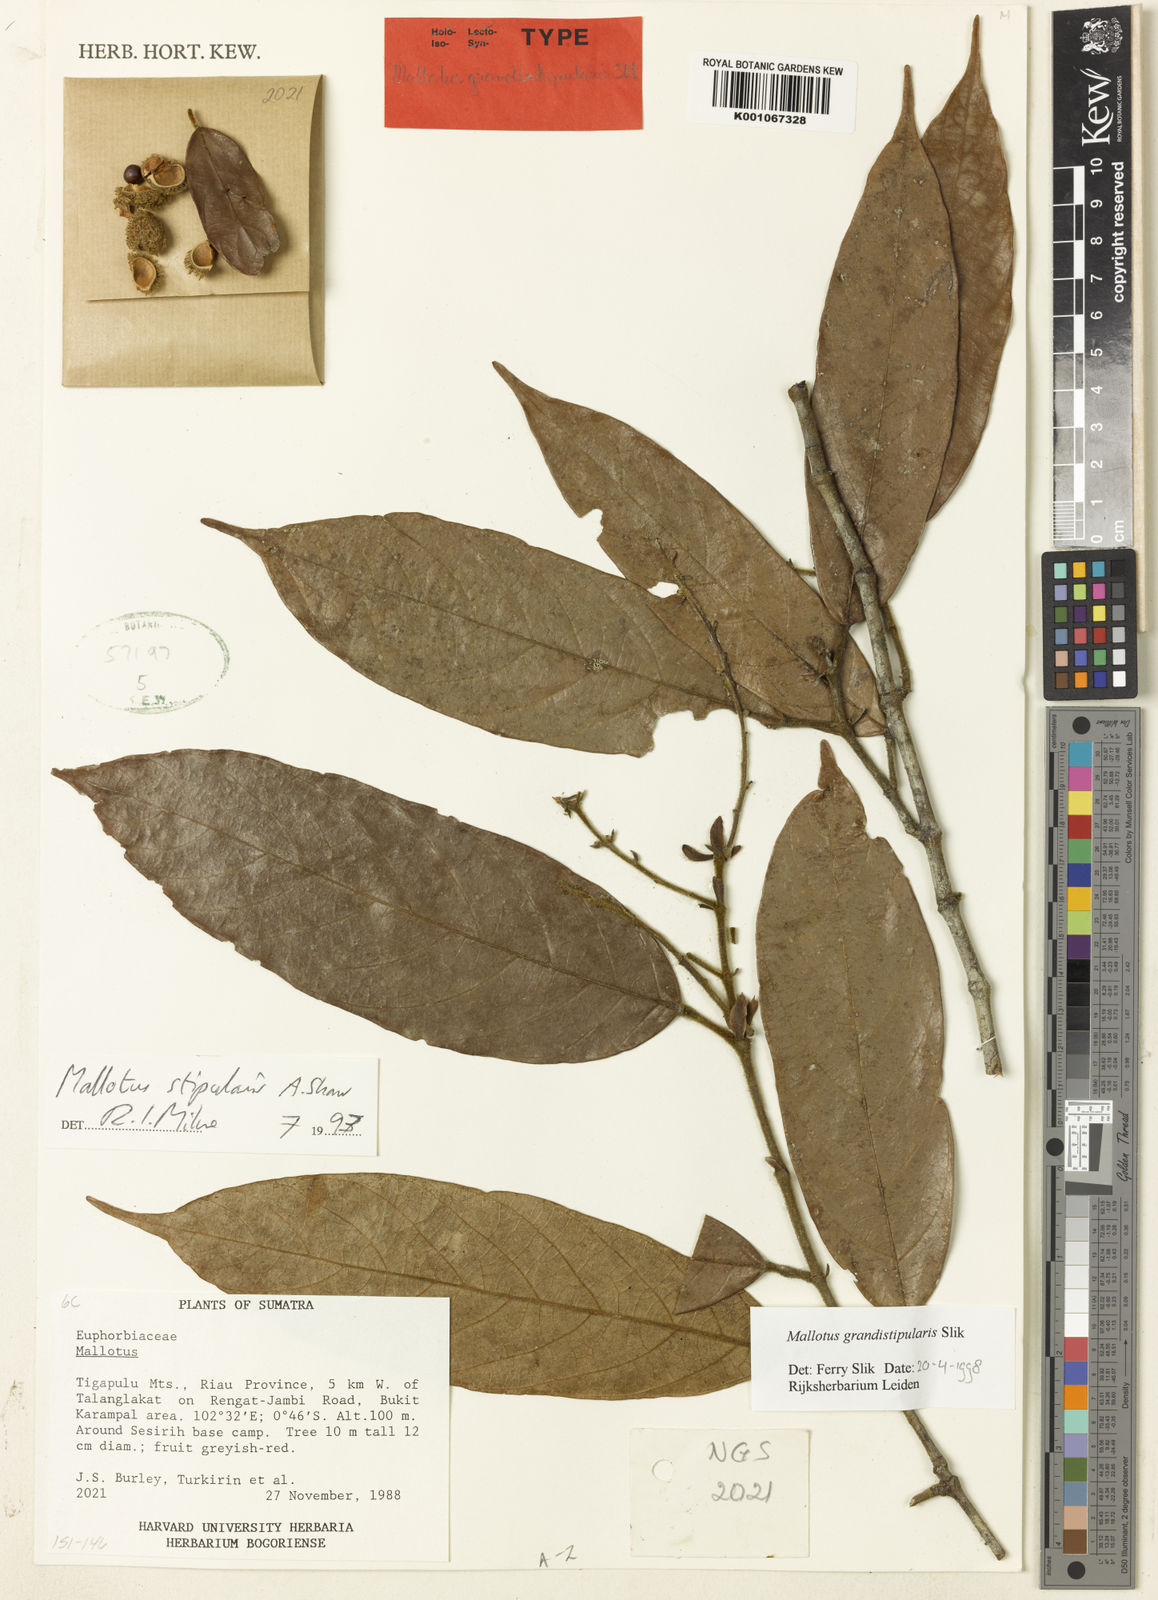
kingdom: Plantae
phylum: Tracheophyta
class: Magnoliopsida
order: Malpighiales
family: Euphorbiaceae
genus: Hancea
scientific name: Hancea grandistipularis
